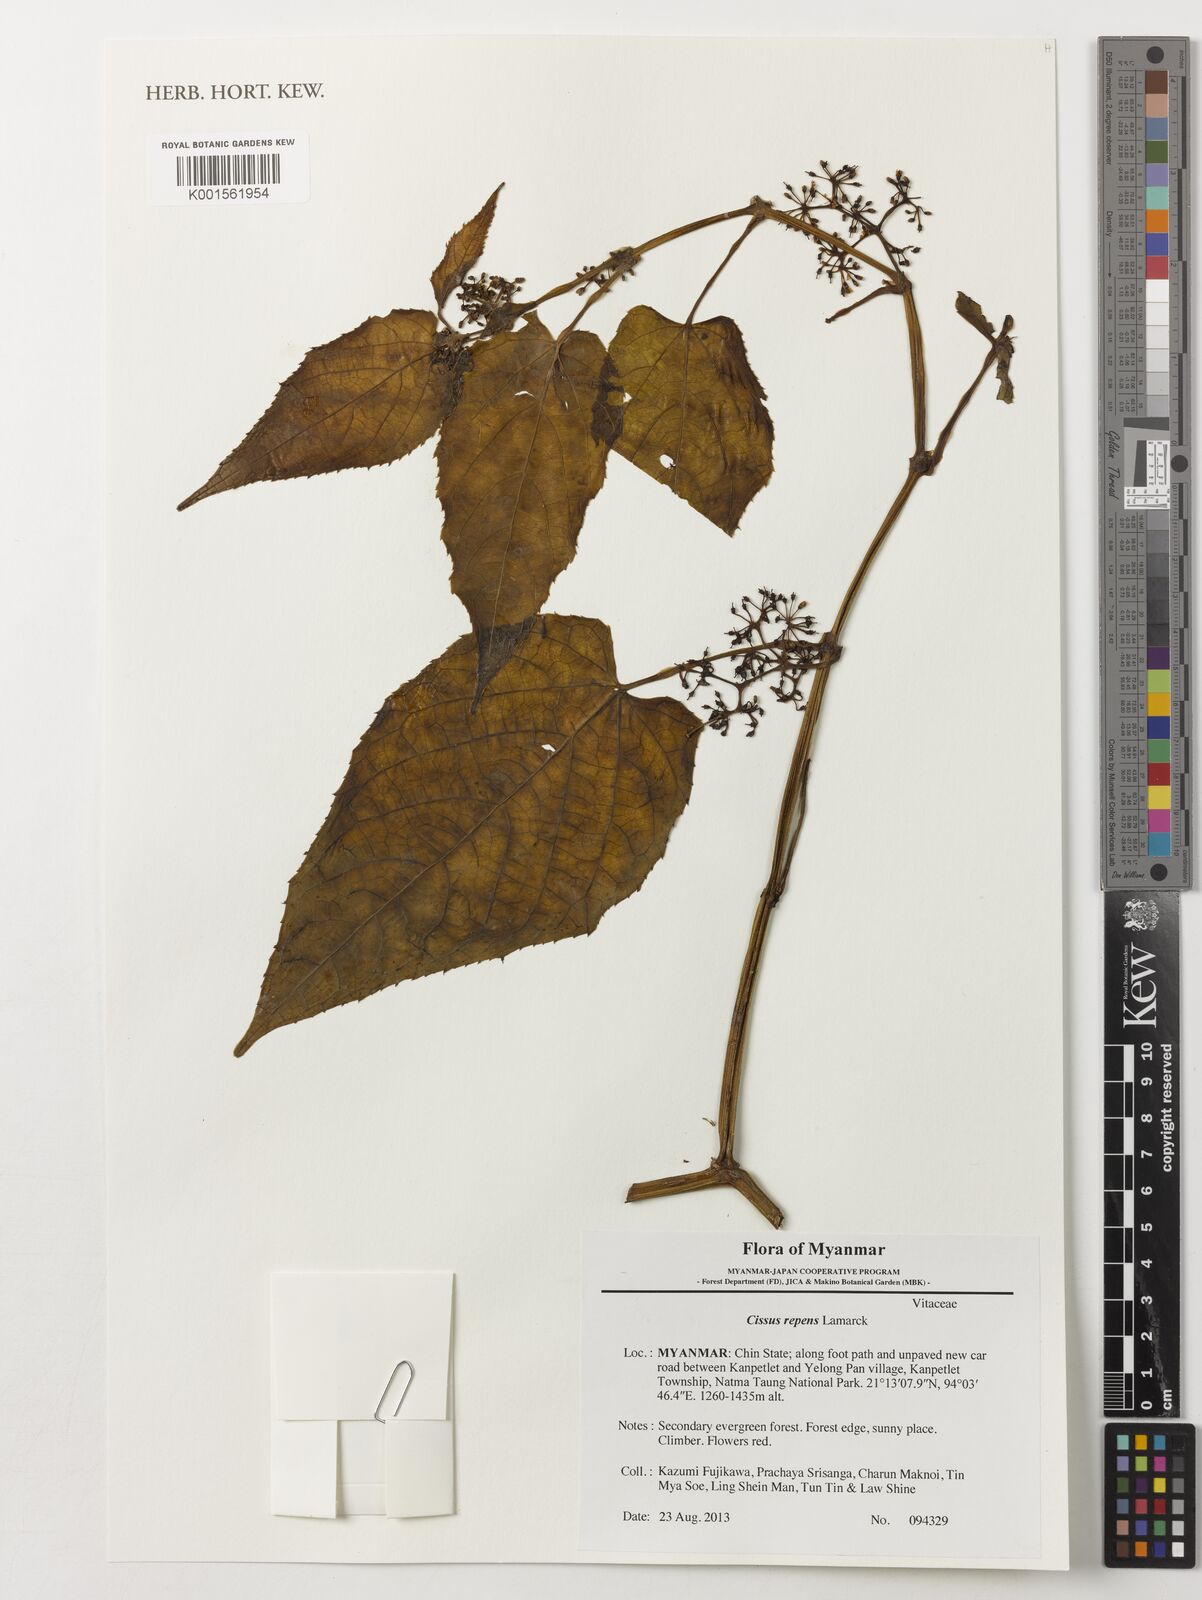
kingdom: Plantae
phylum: Tracheophyta
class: Magnoliopsida
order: Vitales
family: Vitaceae
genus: Cissus
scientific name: Cissus repens
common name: Cissus
